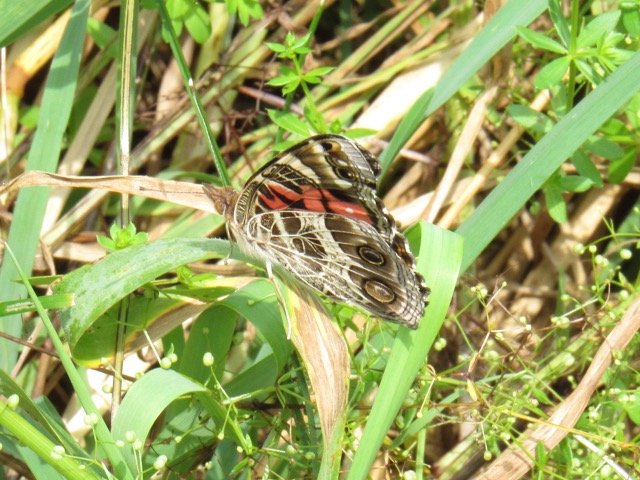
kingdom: Animalia
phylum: Arthropoda
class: Insecta
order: Lepidoptera
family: Nymphalidae
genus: Vanessa
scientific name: Vanessa virginiensis
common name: American Lady
